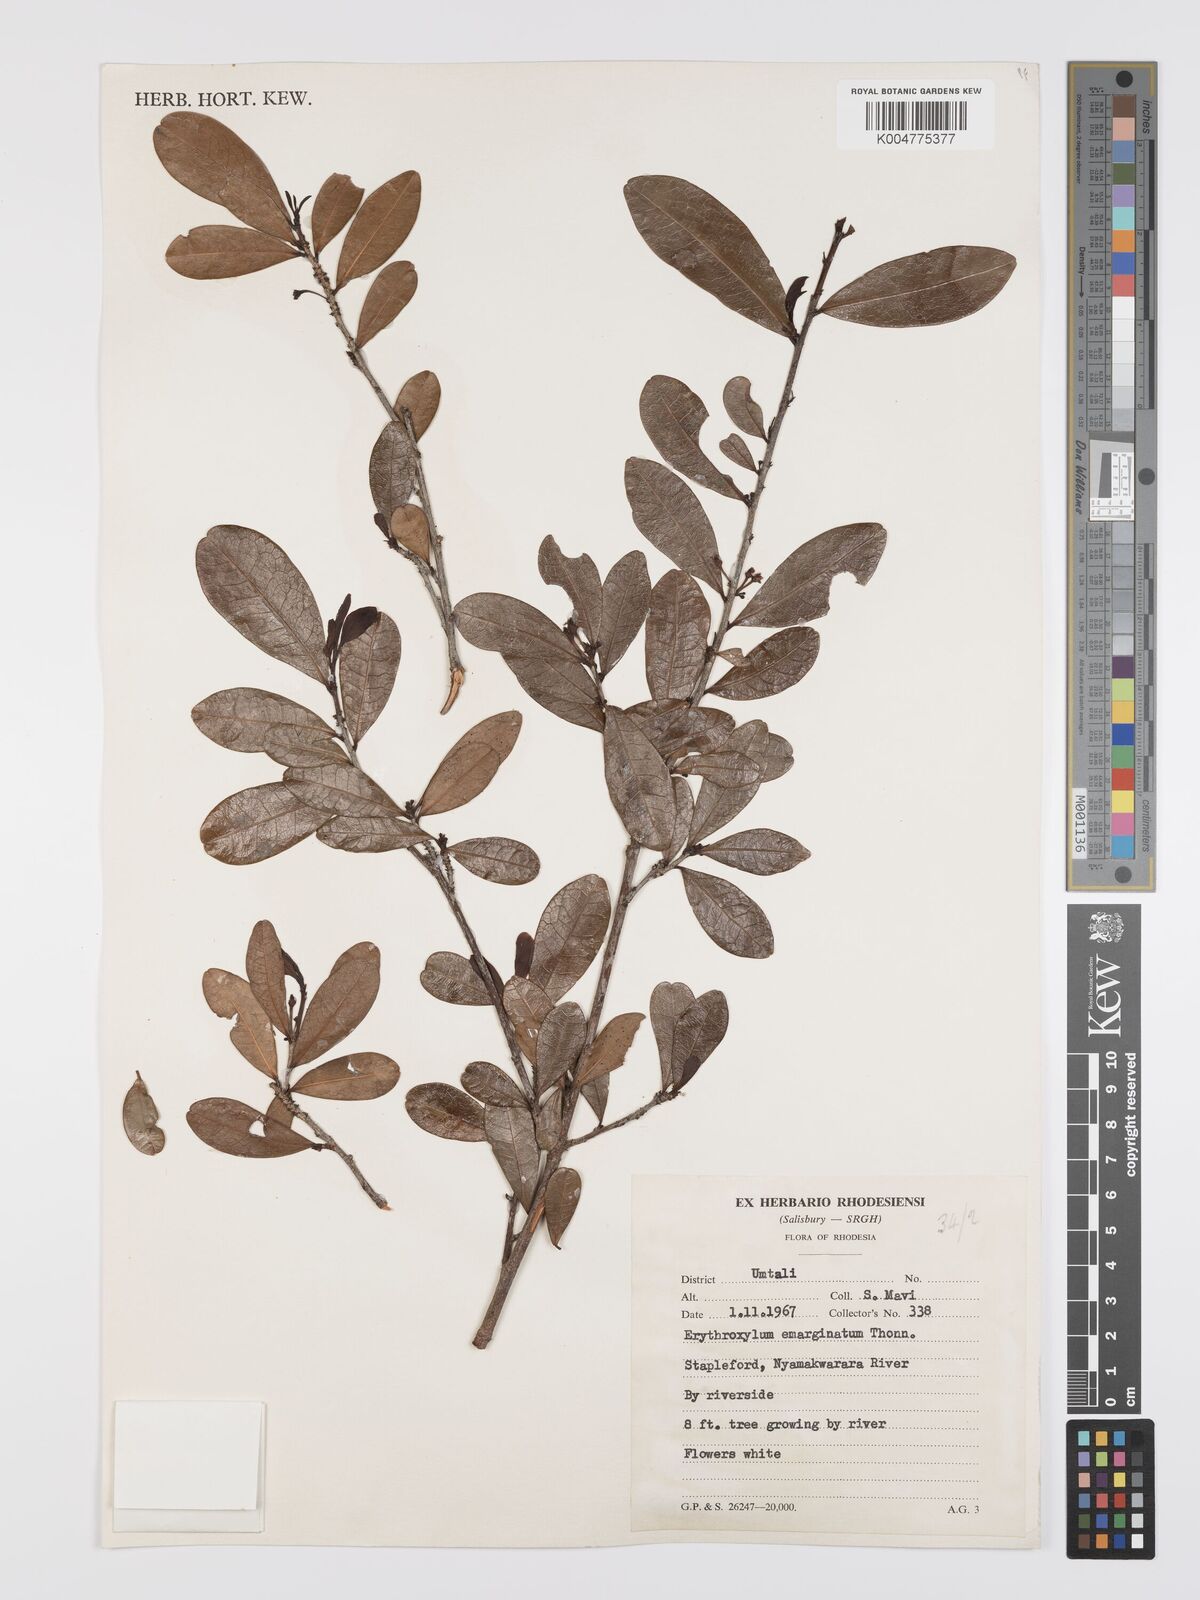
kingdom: Plantae
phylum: Tracheophyta
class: Magnoliopsida
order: Malpighiales
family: Erythroxylaceae
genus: Erythroxylum
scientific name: Erythroxylum emarginatum
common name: African coca-tree
